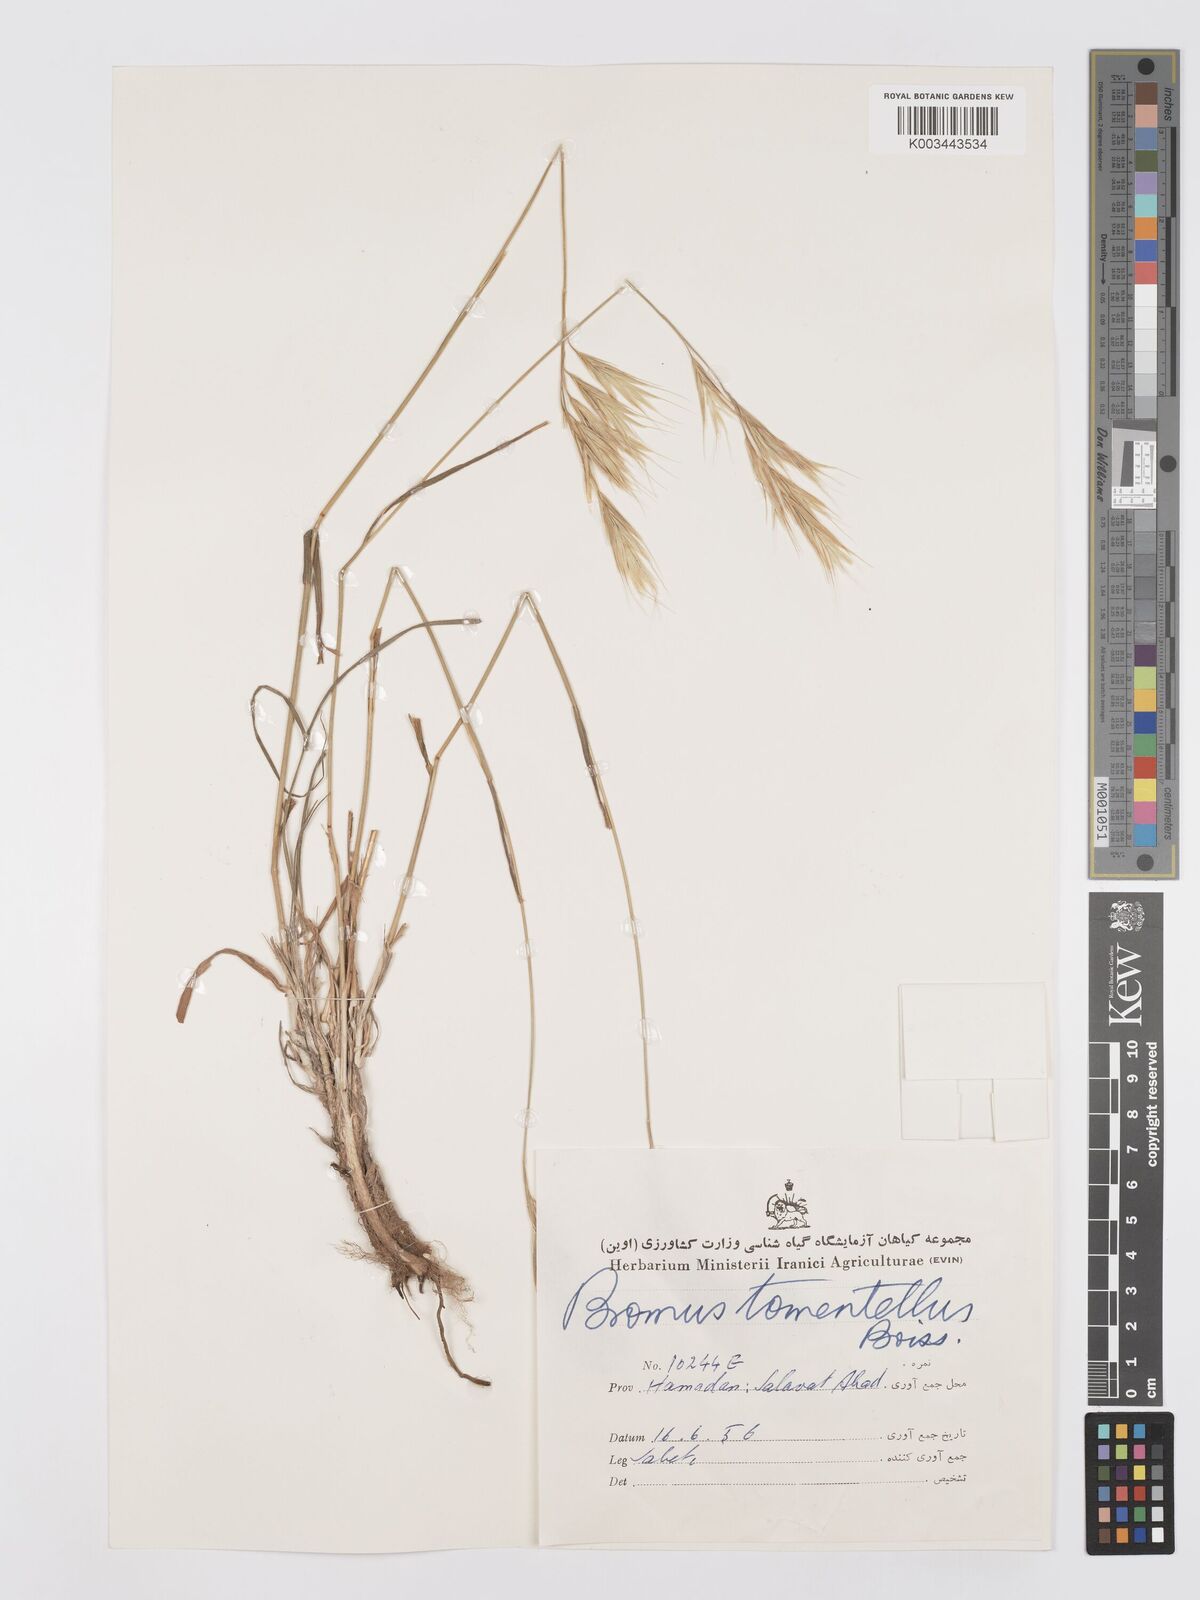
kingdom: Plantae
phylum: Tracheophyta
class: Liliopsida
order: Poales
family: Poaceae
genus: Bromus
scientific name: Bromus tomentellus
